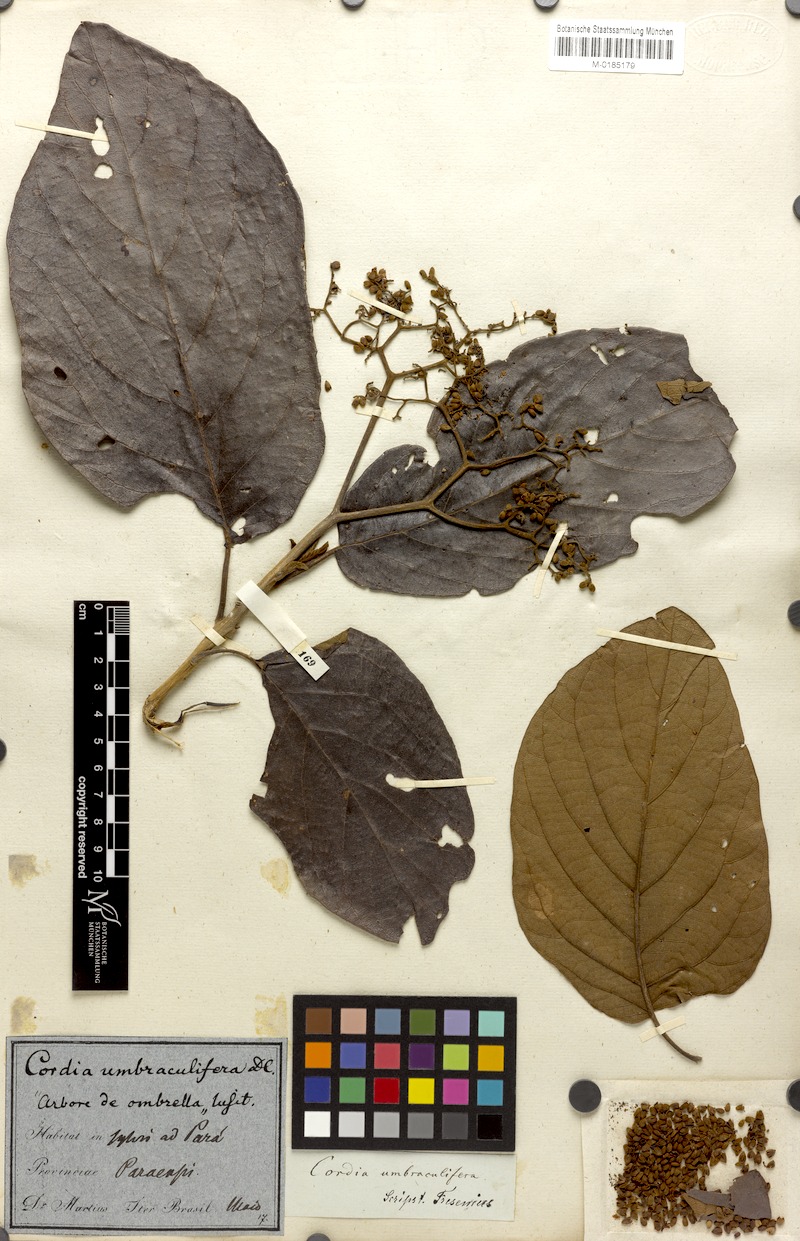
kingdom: Plantae
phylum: Tracheophyta
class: Magnoliopsida
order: Boraginales
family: Cordiaceae
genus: Cordia
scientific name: Cordia tetrandra
